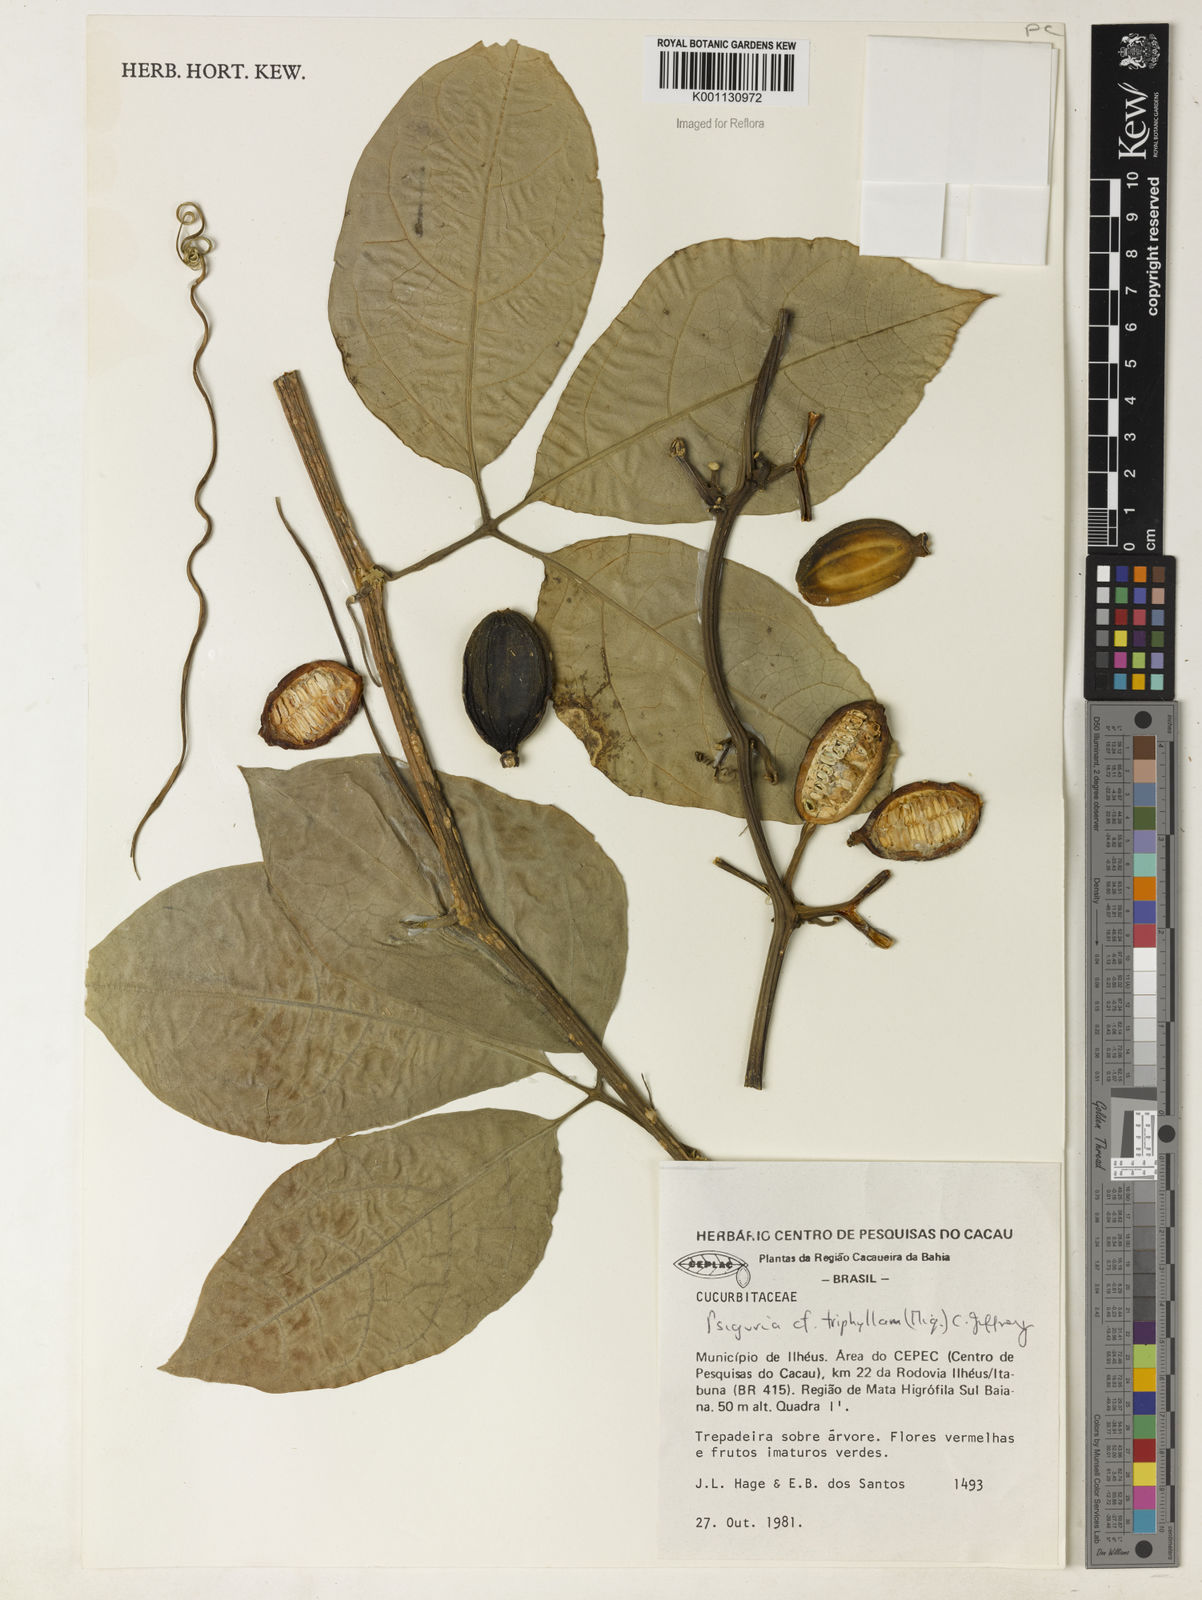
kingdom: Plantae
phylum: Tracheophyta
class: Magnoliopsida
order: Cucurbitales
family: Cucurbitaceae
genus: Psiguria
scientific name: Psiguria triphylla
